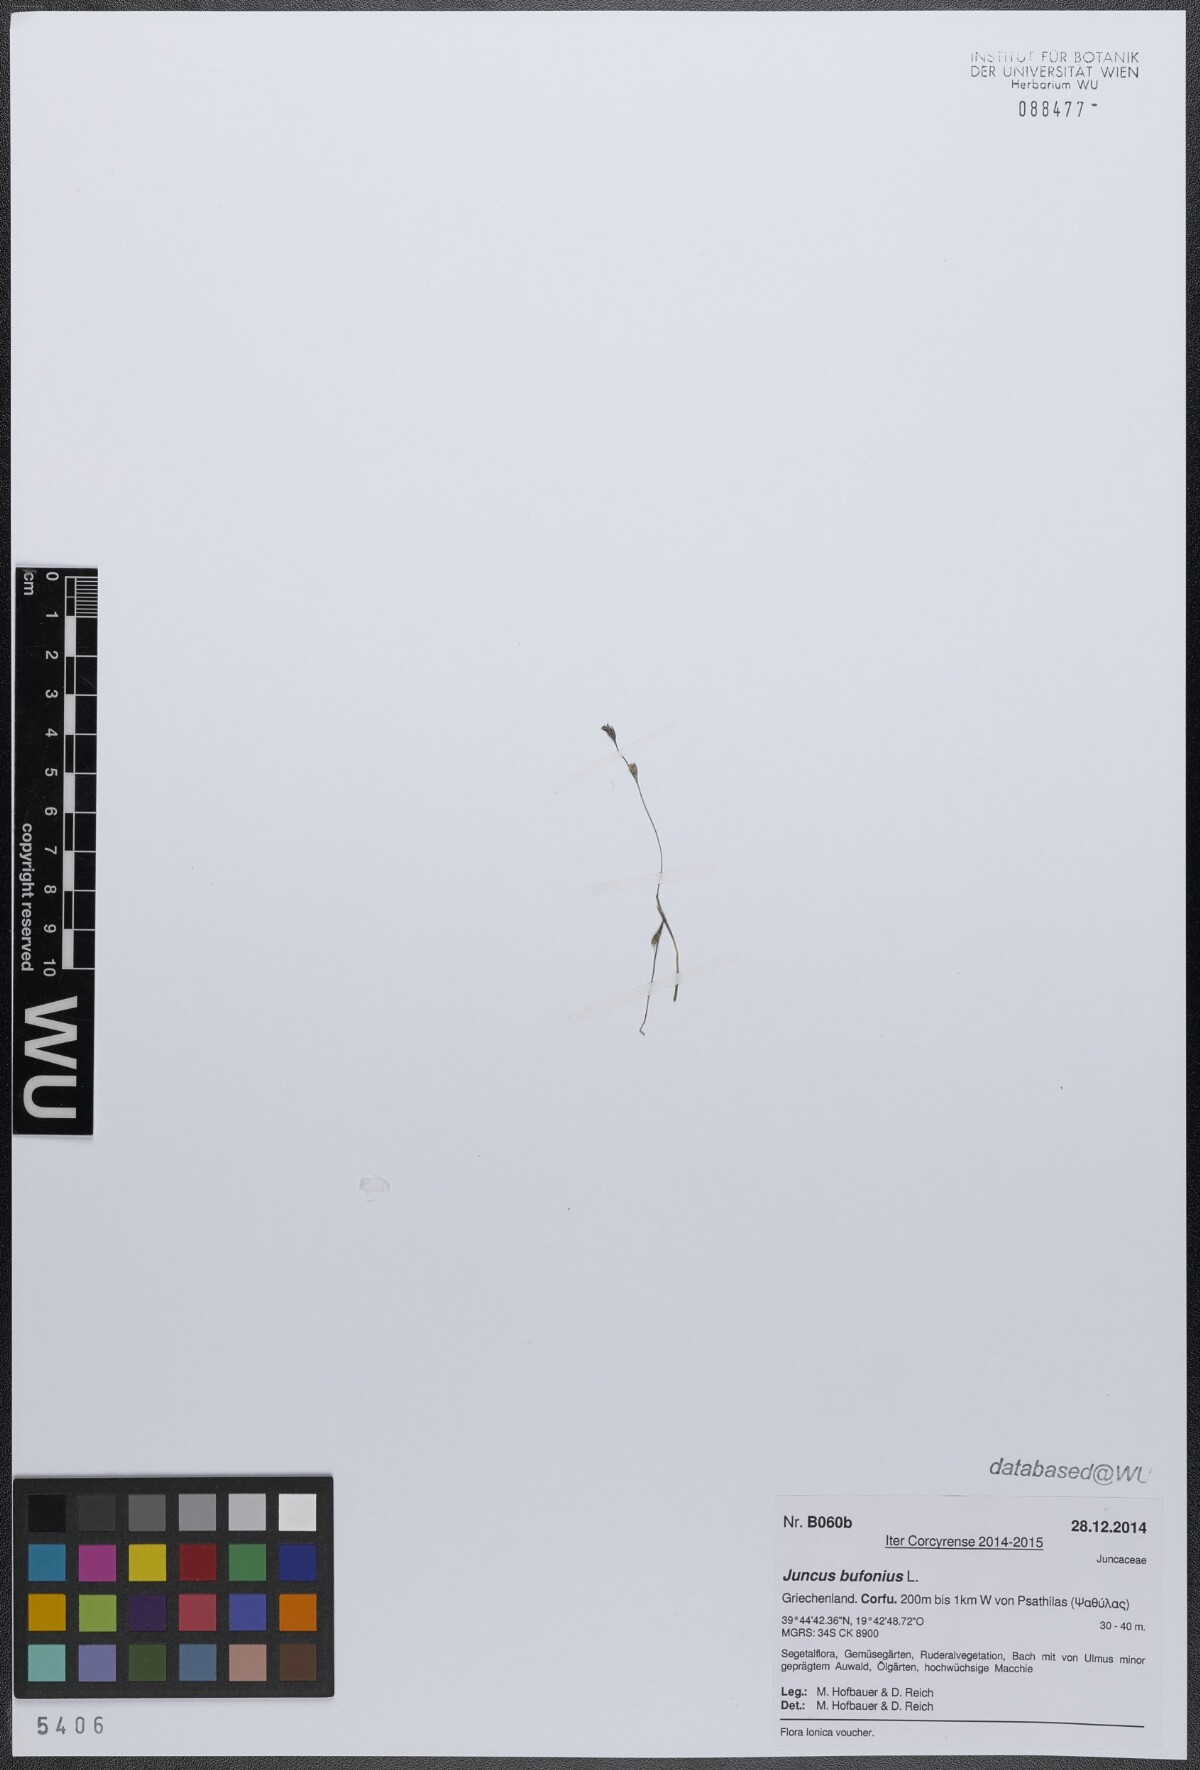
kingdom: Plantae
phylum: Tracheophyta
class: Liliopsida
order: Poales
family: Juncaceae
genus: Juncus
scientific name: Juncus bufonius
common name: Toad rush
